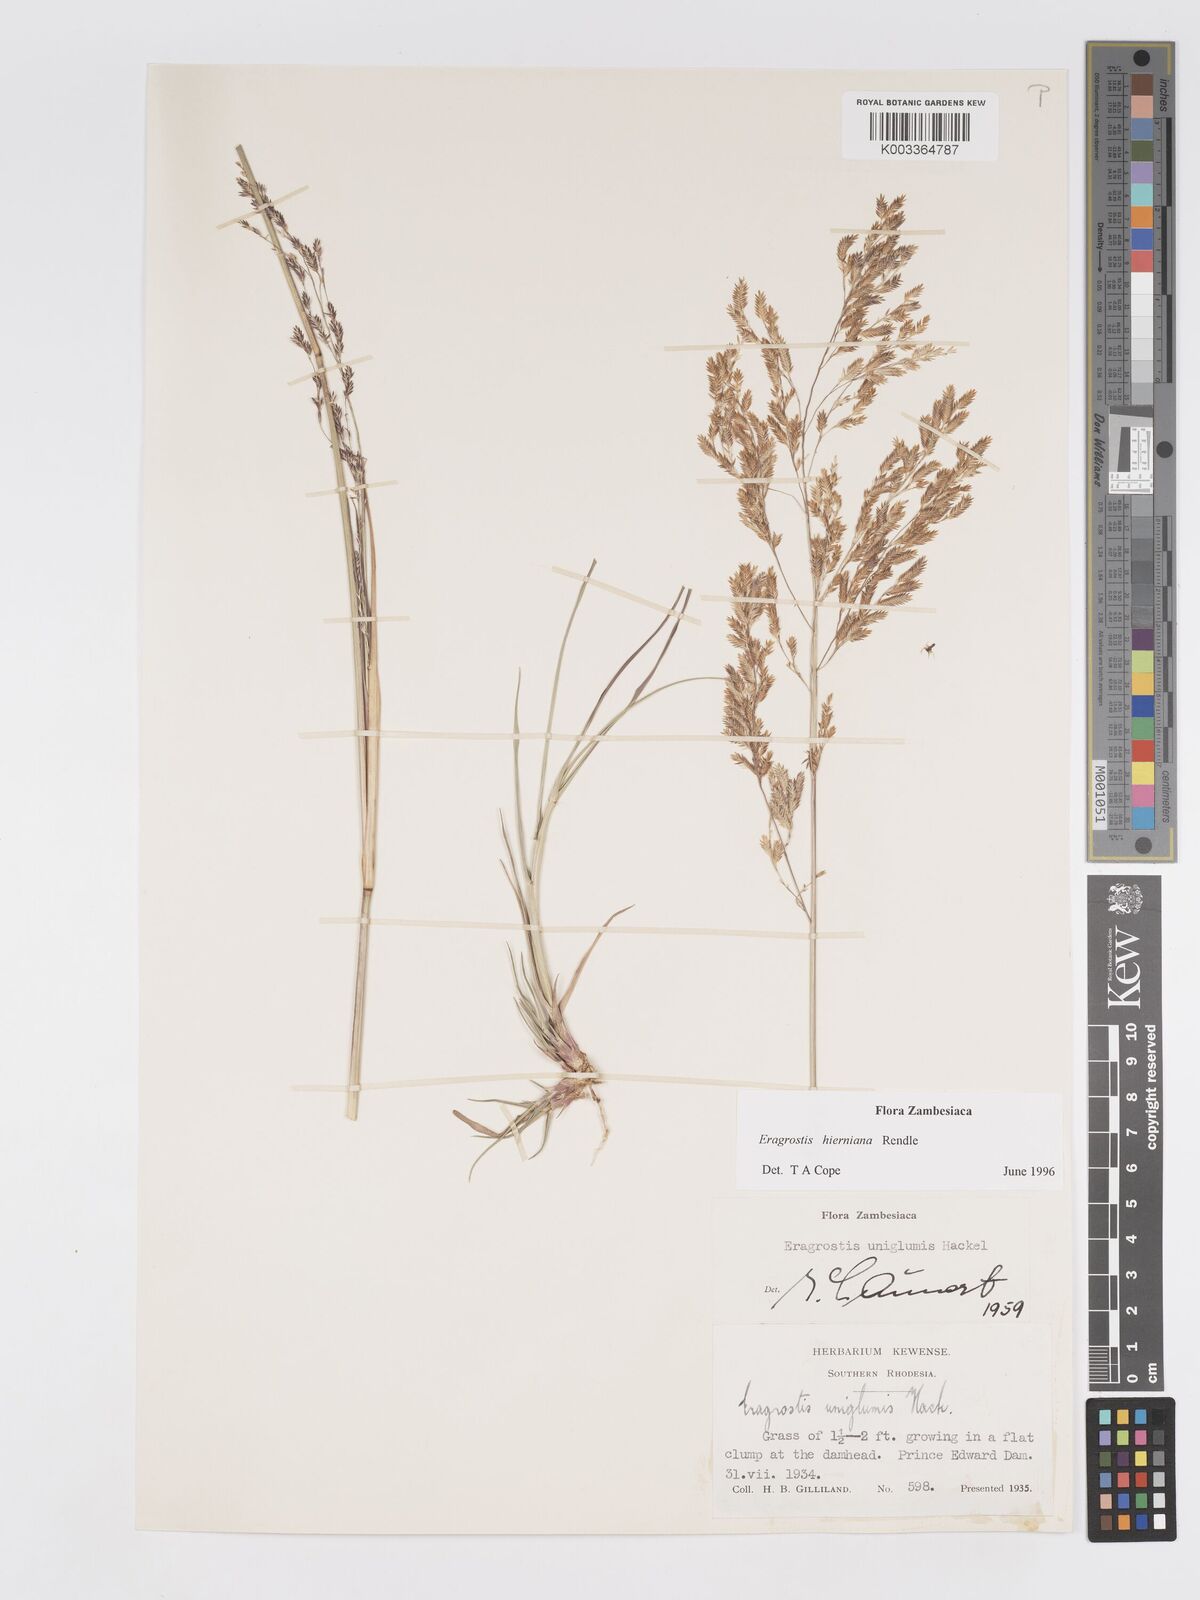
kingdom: Plantae
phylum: Tracheophyta
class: Liliopsida
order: Poales
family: Poaceae
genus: Eragrostis
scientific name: Eragrostis hierniana
